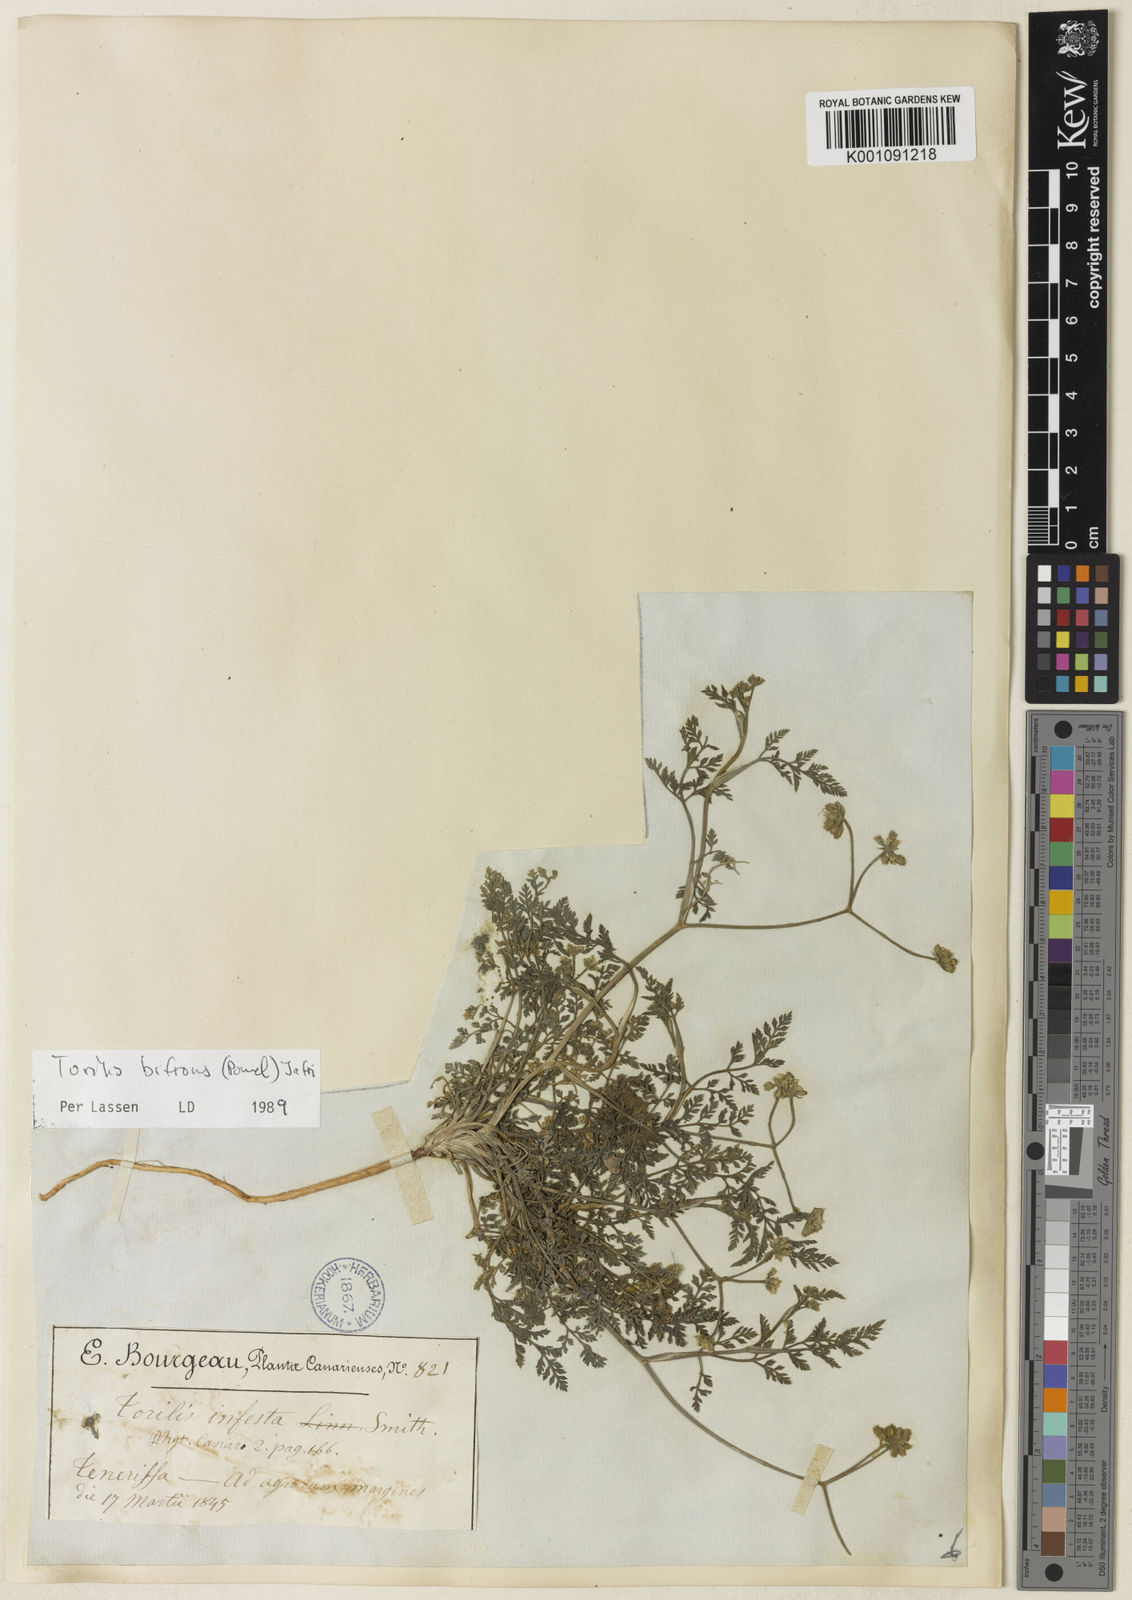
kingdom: Plantae
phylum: Tracheophyta
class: Magnoliopsida
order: Apiales
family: Apiaceae
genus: Torilis
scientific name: Torilis elongata
